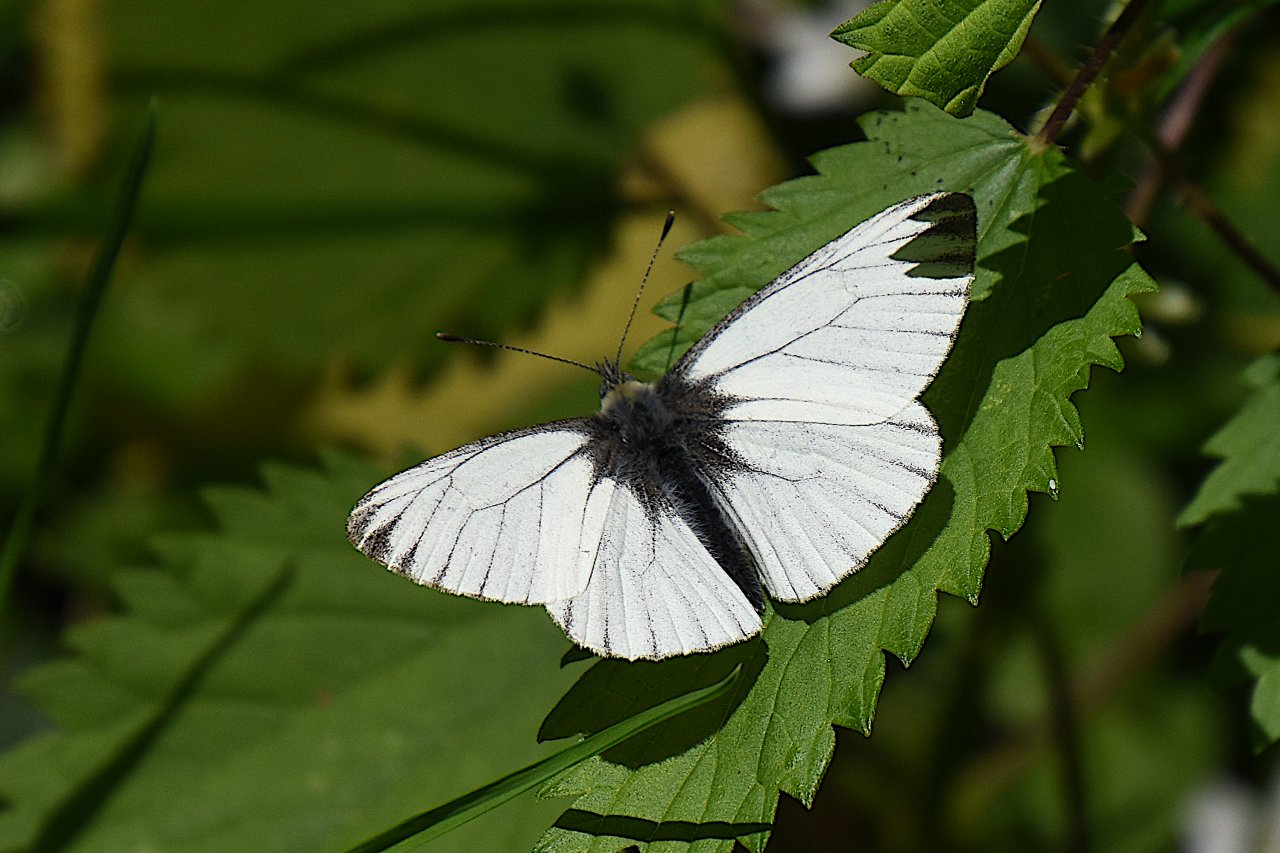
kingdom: Animalia
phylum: Arthropoda
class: Insecta
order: Lepidoptera
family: Pieridae
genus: Pieris
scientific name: Pieris marginalis
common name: Margined White
